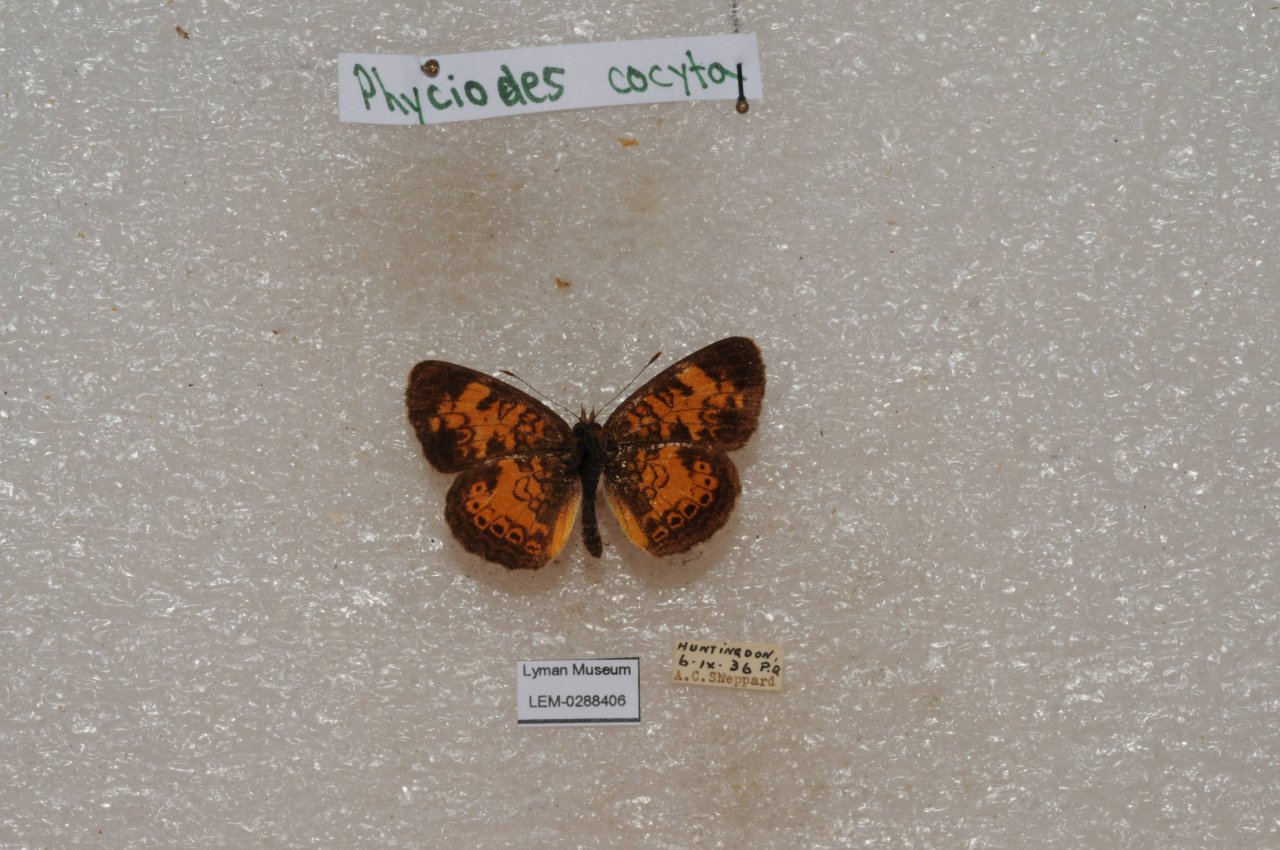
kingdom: Animalia
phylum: Arthropoda
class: Insecta
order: Lepidoptera
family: Nymphalidae
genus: Phyciodes
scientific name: Phyciodes tharos
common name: Northern Crescent
